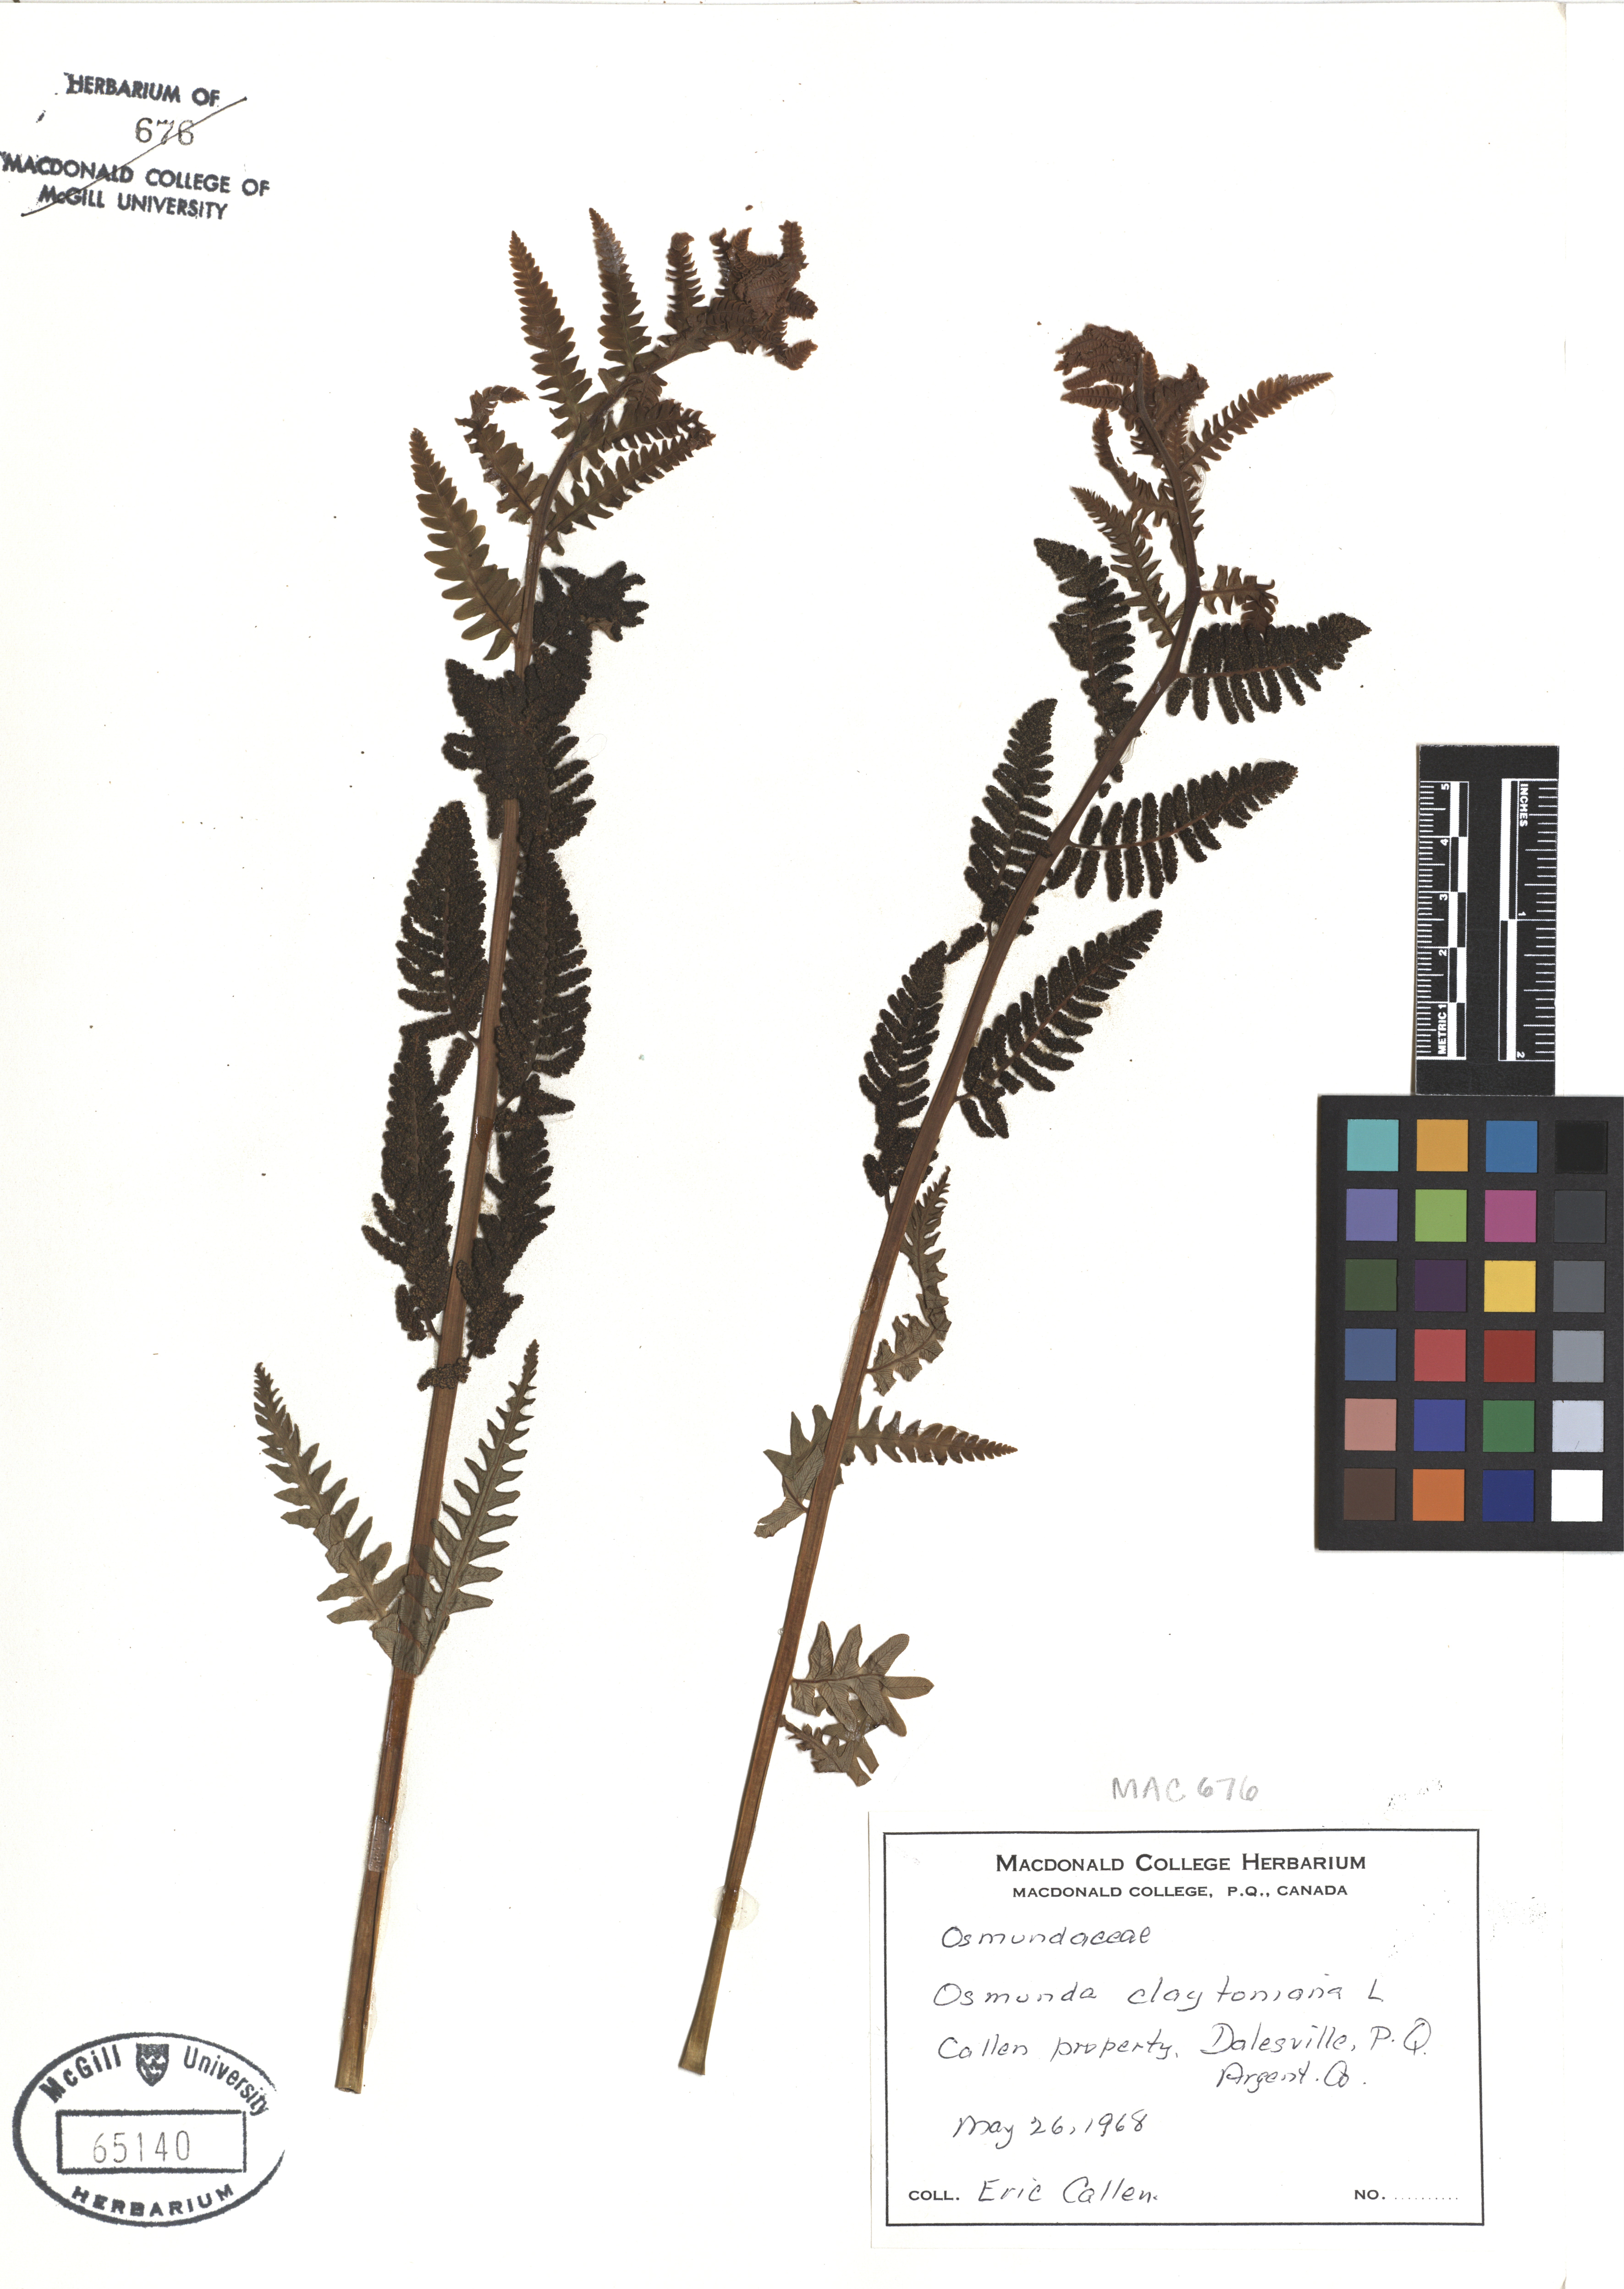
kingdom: Plantae
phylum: Tracheophyta
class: Polypodiopsida
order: Osmundales
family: Osmundaceae
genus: Claytosmunda
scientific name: Claytosmunda claytoniana
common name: Clayton's fern
